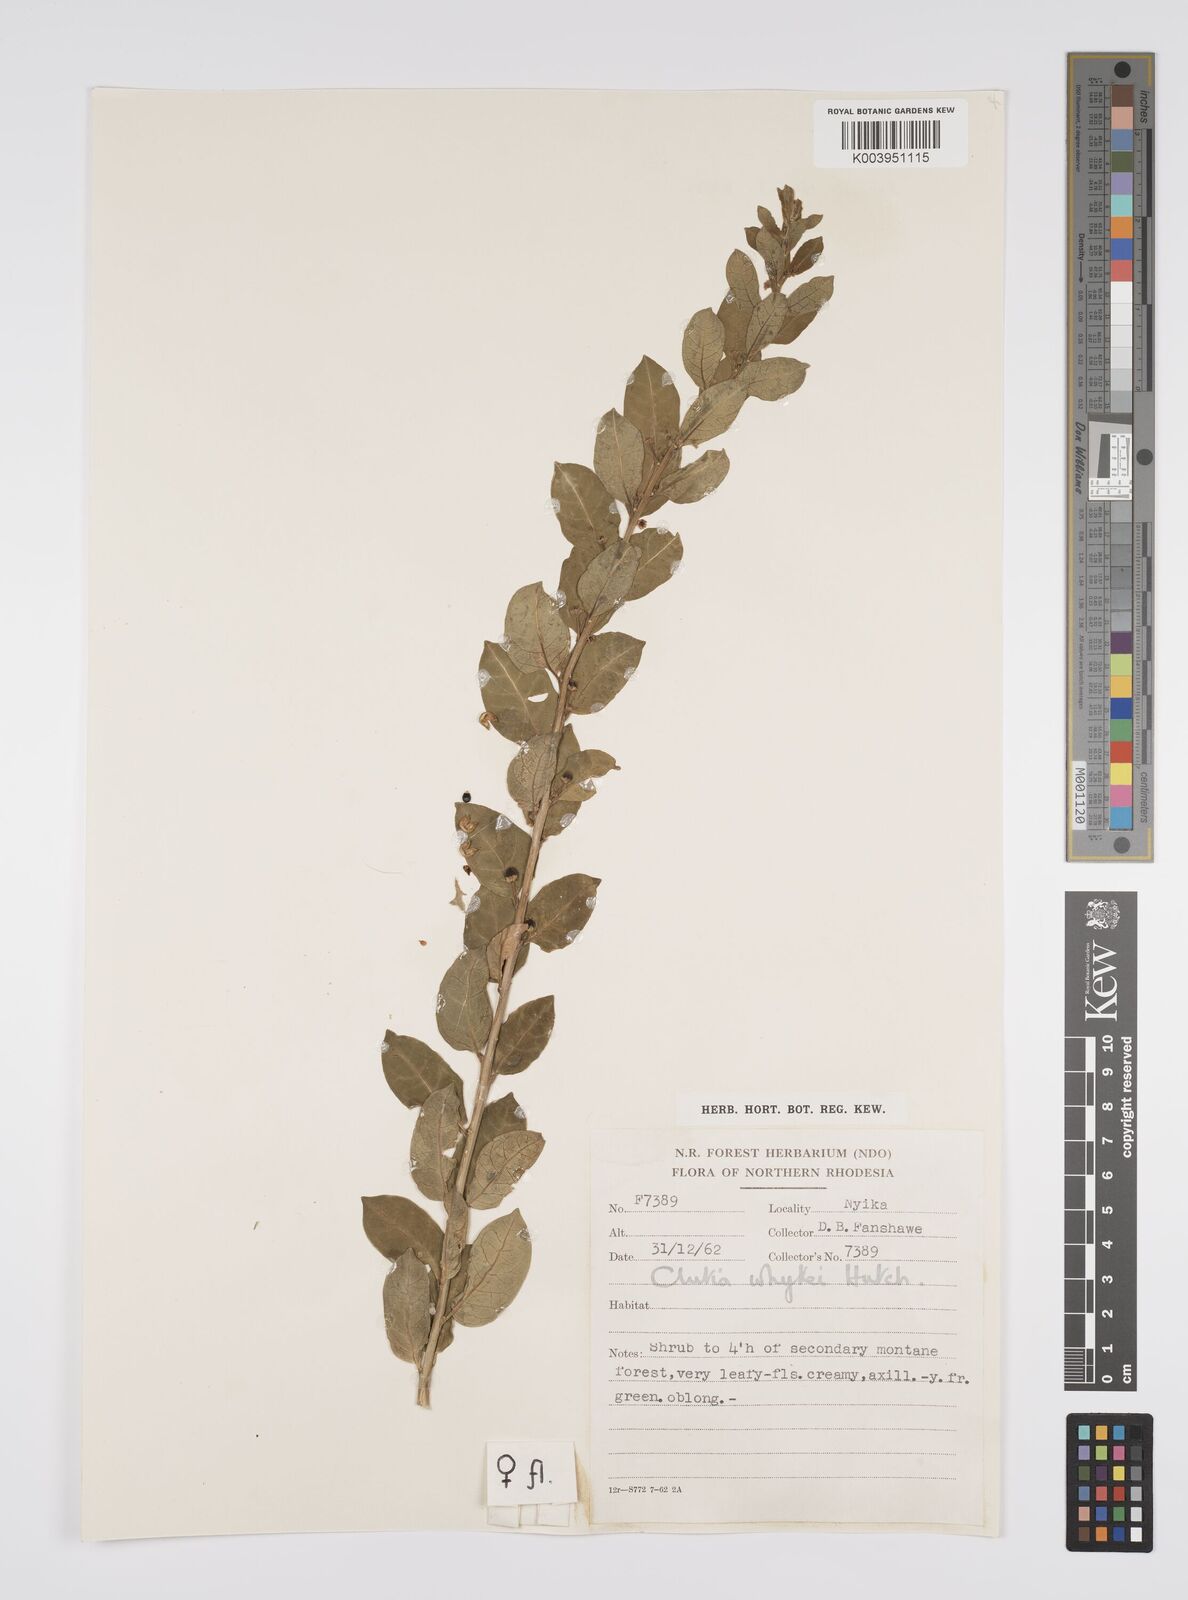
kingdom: Plantae
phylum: Tracheophyta
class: Magnoliopsida
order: Malpighiales
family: Peraceae
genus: Clutia
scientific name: Clutia
